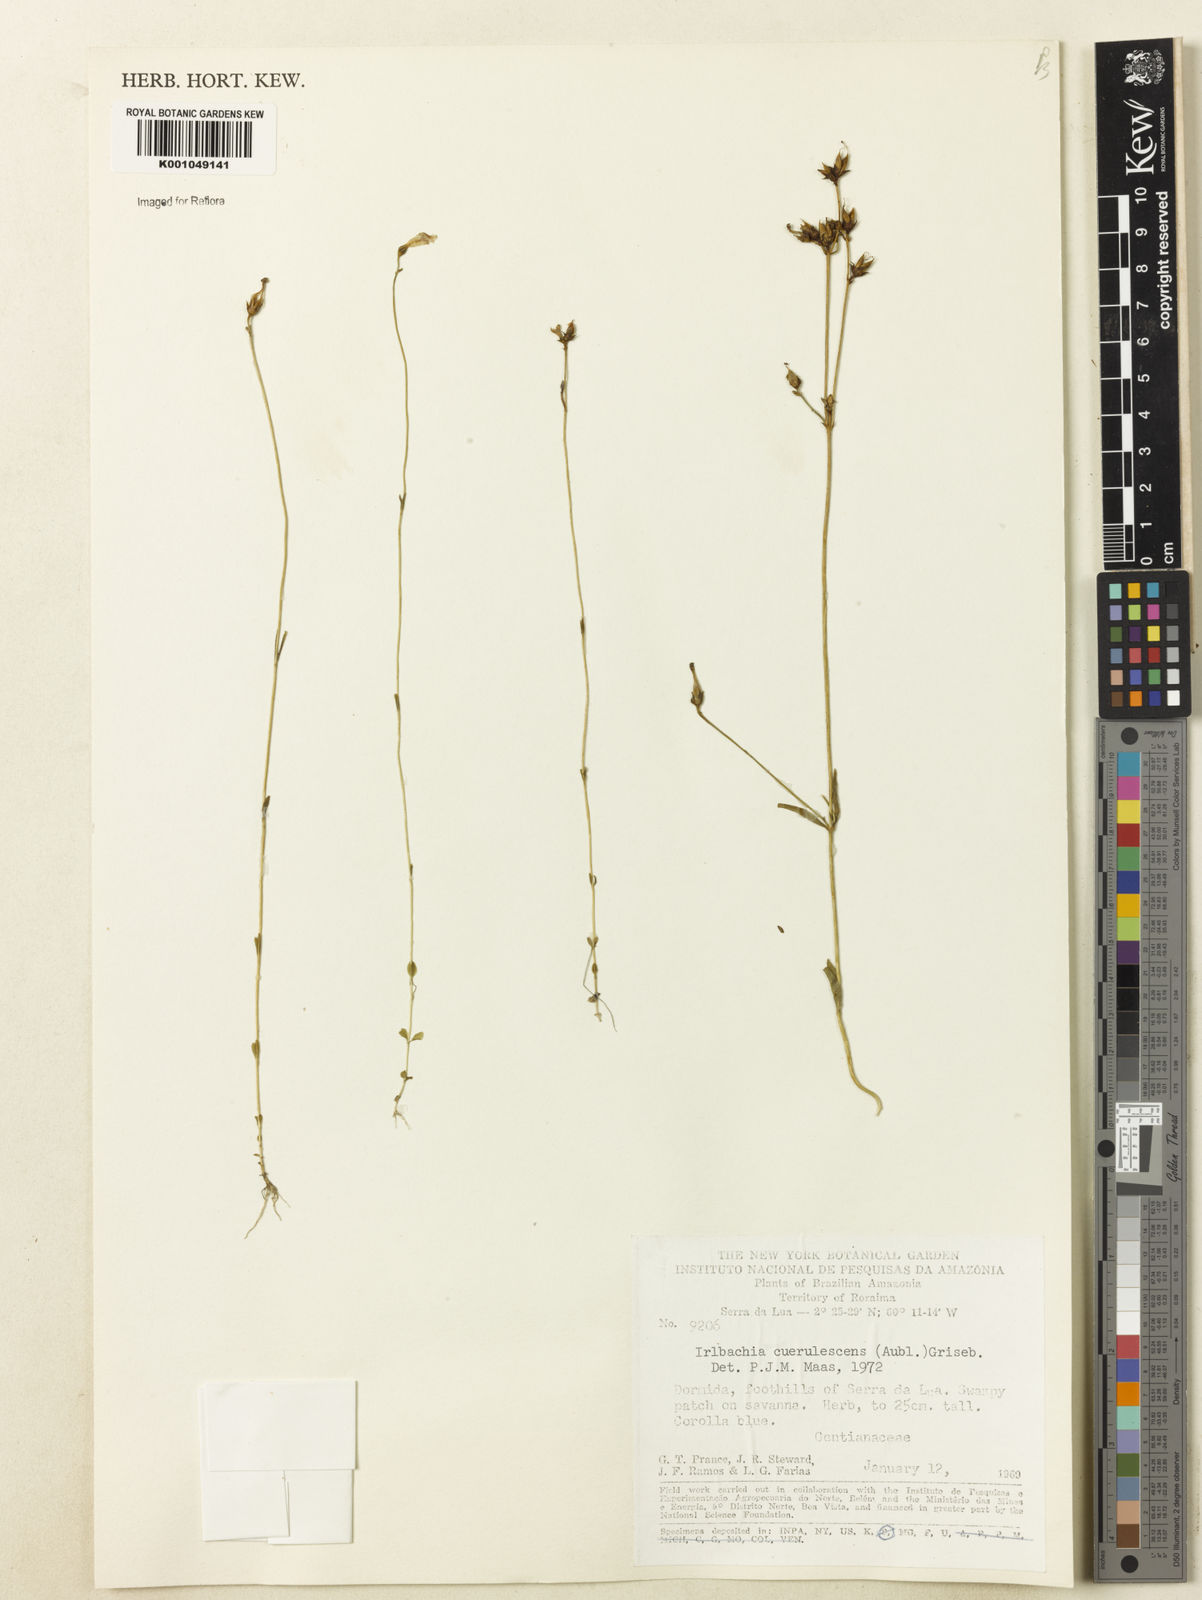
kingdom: Plantae
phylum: Tracheophyta
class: Magnoliopsida
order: Gentianales
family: Gentianaceae
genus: Tetrapollinia
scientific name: Tetrapollinia caerulescens
